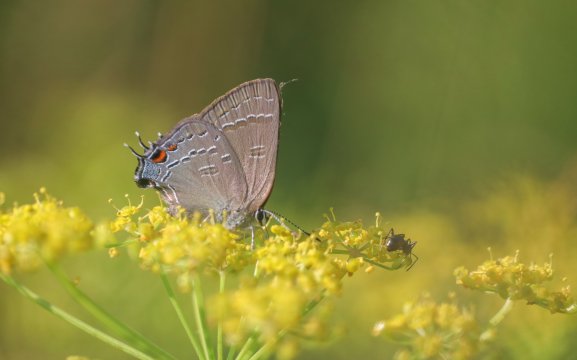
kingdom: Animalia
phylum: Arthropoda
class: Insecta
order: Lepidoptera
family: Lycaenidae
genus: Satyrium
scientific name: Satyrium calanus
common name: Banded Hairstreak
